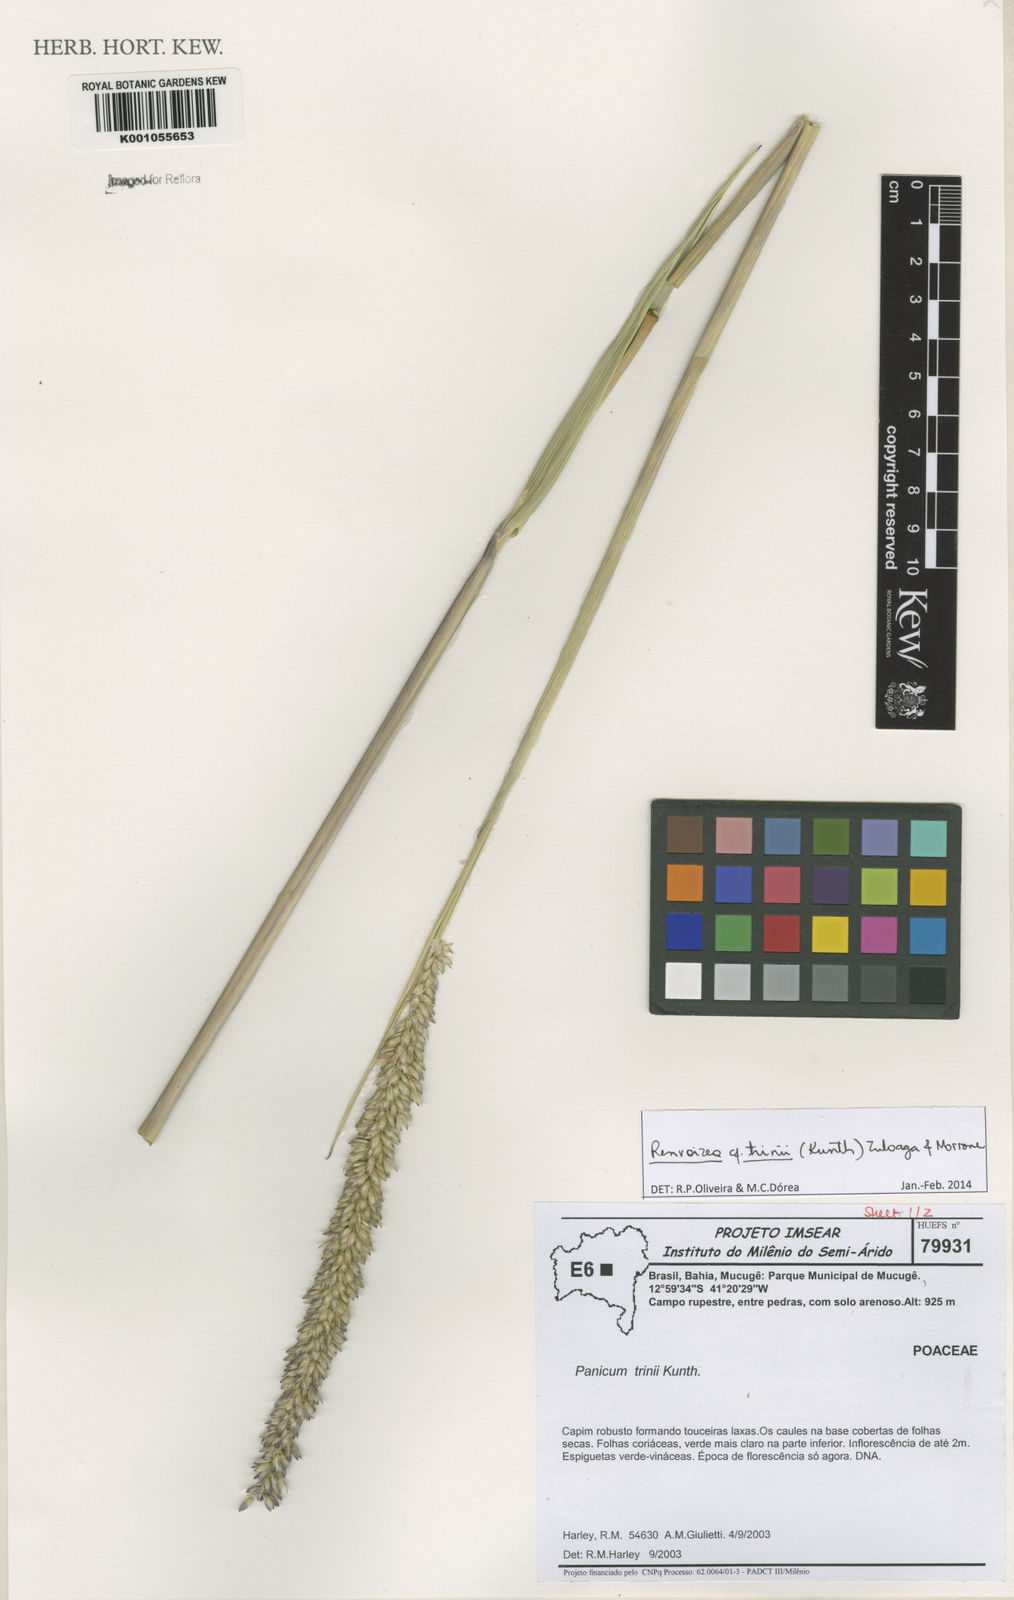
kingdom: Plantae
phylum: Tracheophyta
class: Liliopsida
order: Poales
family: Poaceae
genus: Renvoizea
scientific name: Renvoizea trinii
